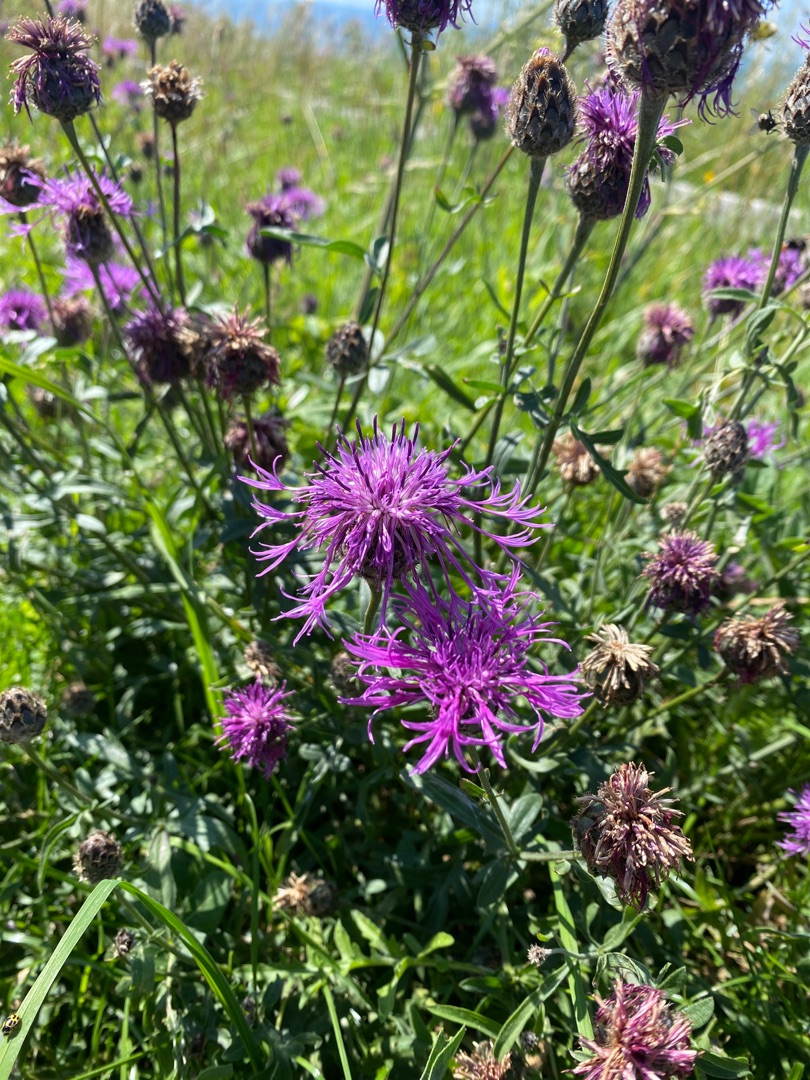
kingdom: Plantae
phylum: Tracheophyta
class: Magnoliopsida
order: Asterales
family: Asteraceae
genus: Centaurea
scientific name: Centaurea scabiosa
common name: Stor knopurt
